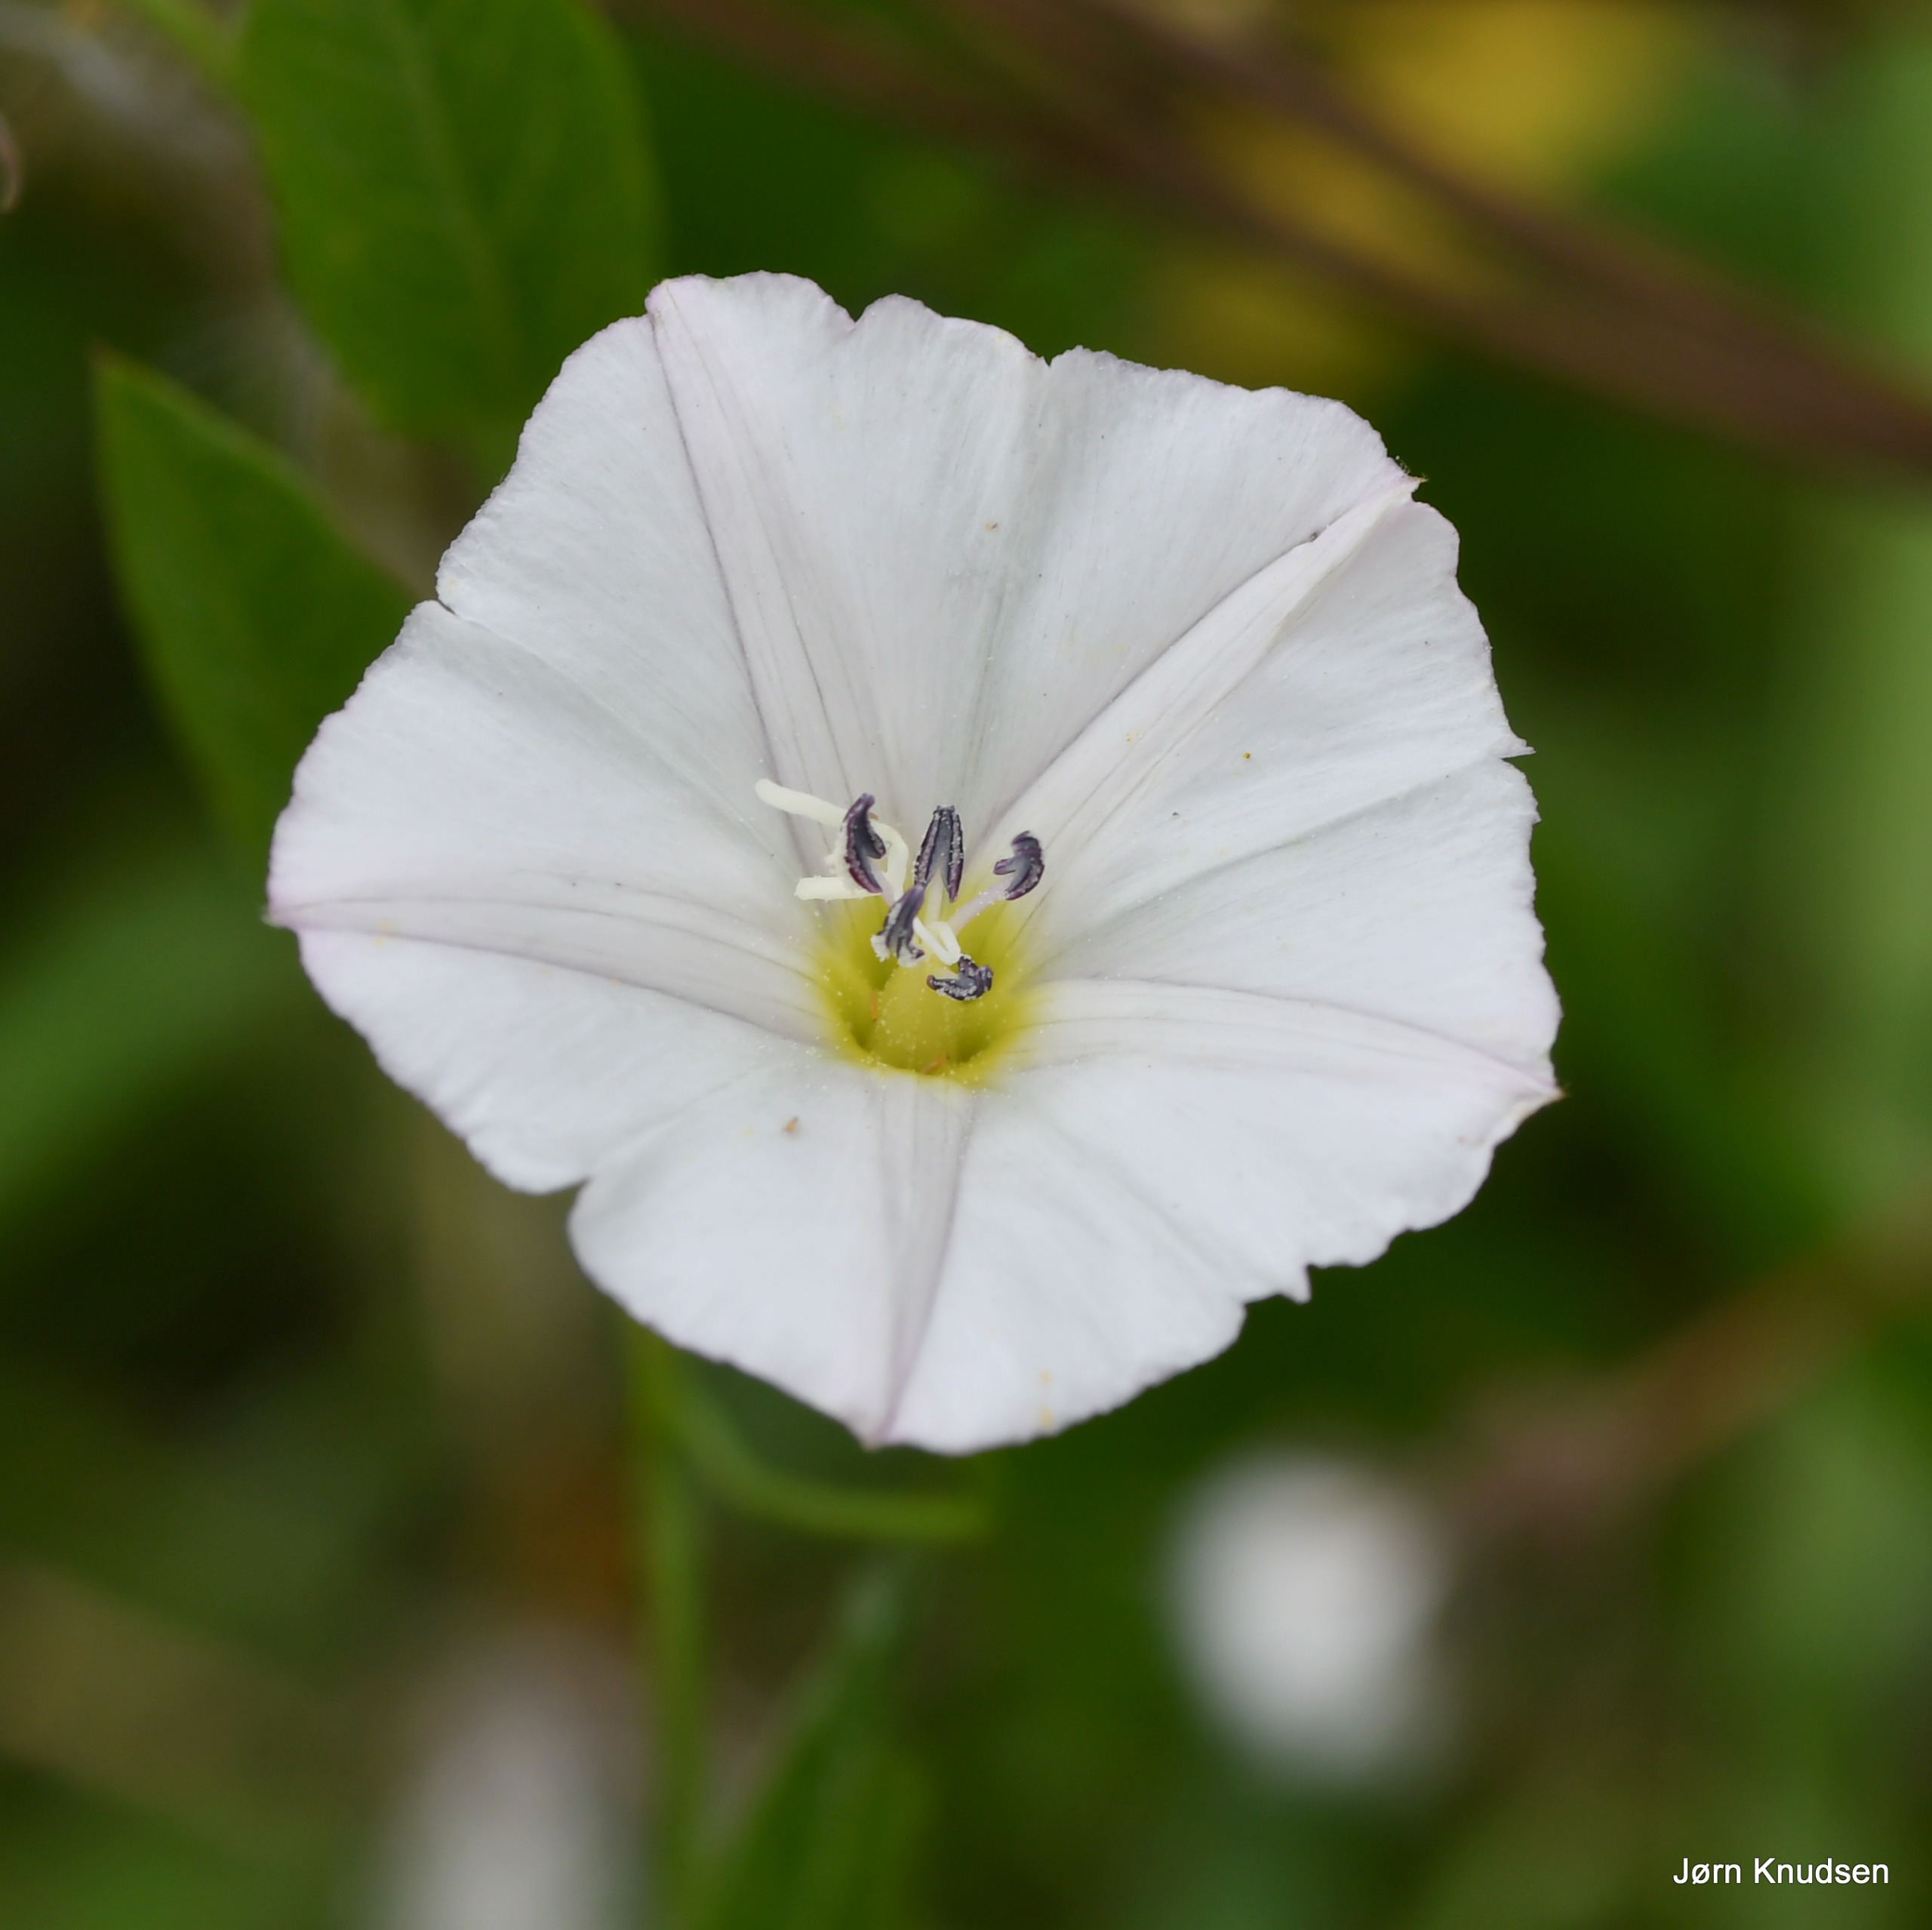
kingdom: Plantae
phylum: Tracheophyta
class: Magnoliopsida
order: Solanales
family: Convolvulaceae
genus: Convolvulus
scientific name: Convolvulus arvensis
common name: Ager-snerle
